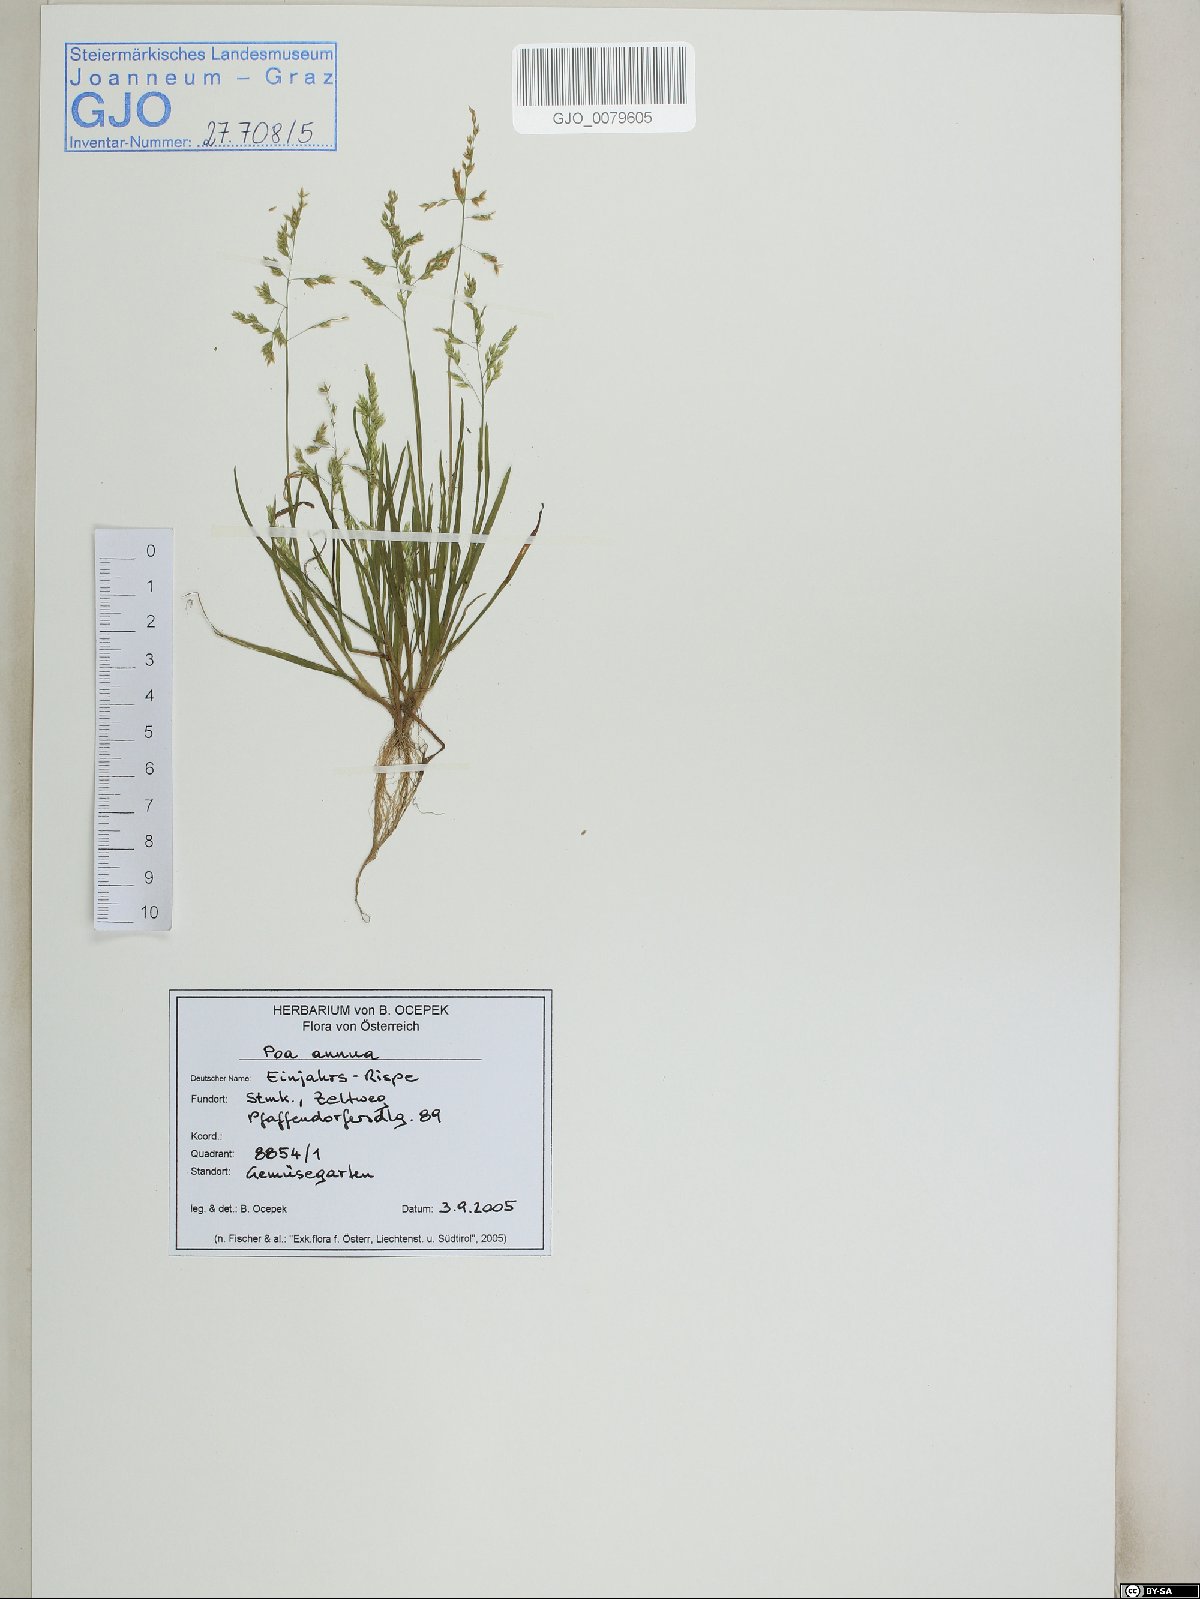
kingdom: Plantae
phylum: Tracheophyta
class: Liliopsida
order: Poales
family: Poaceae
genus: Poa
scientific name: Poa annua
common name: Annual bluegrass
